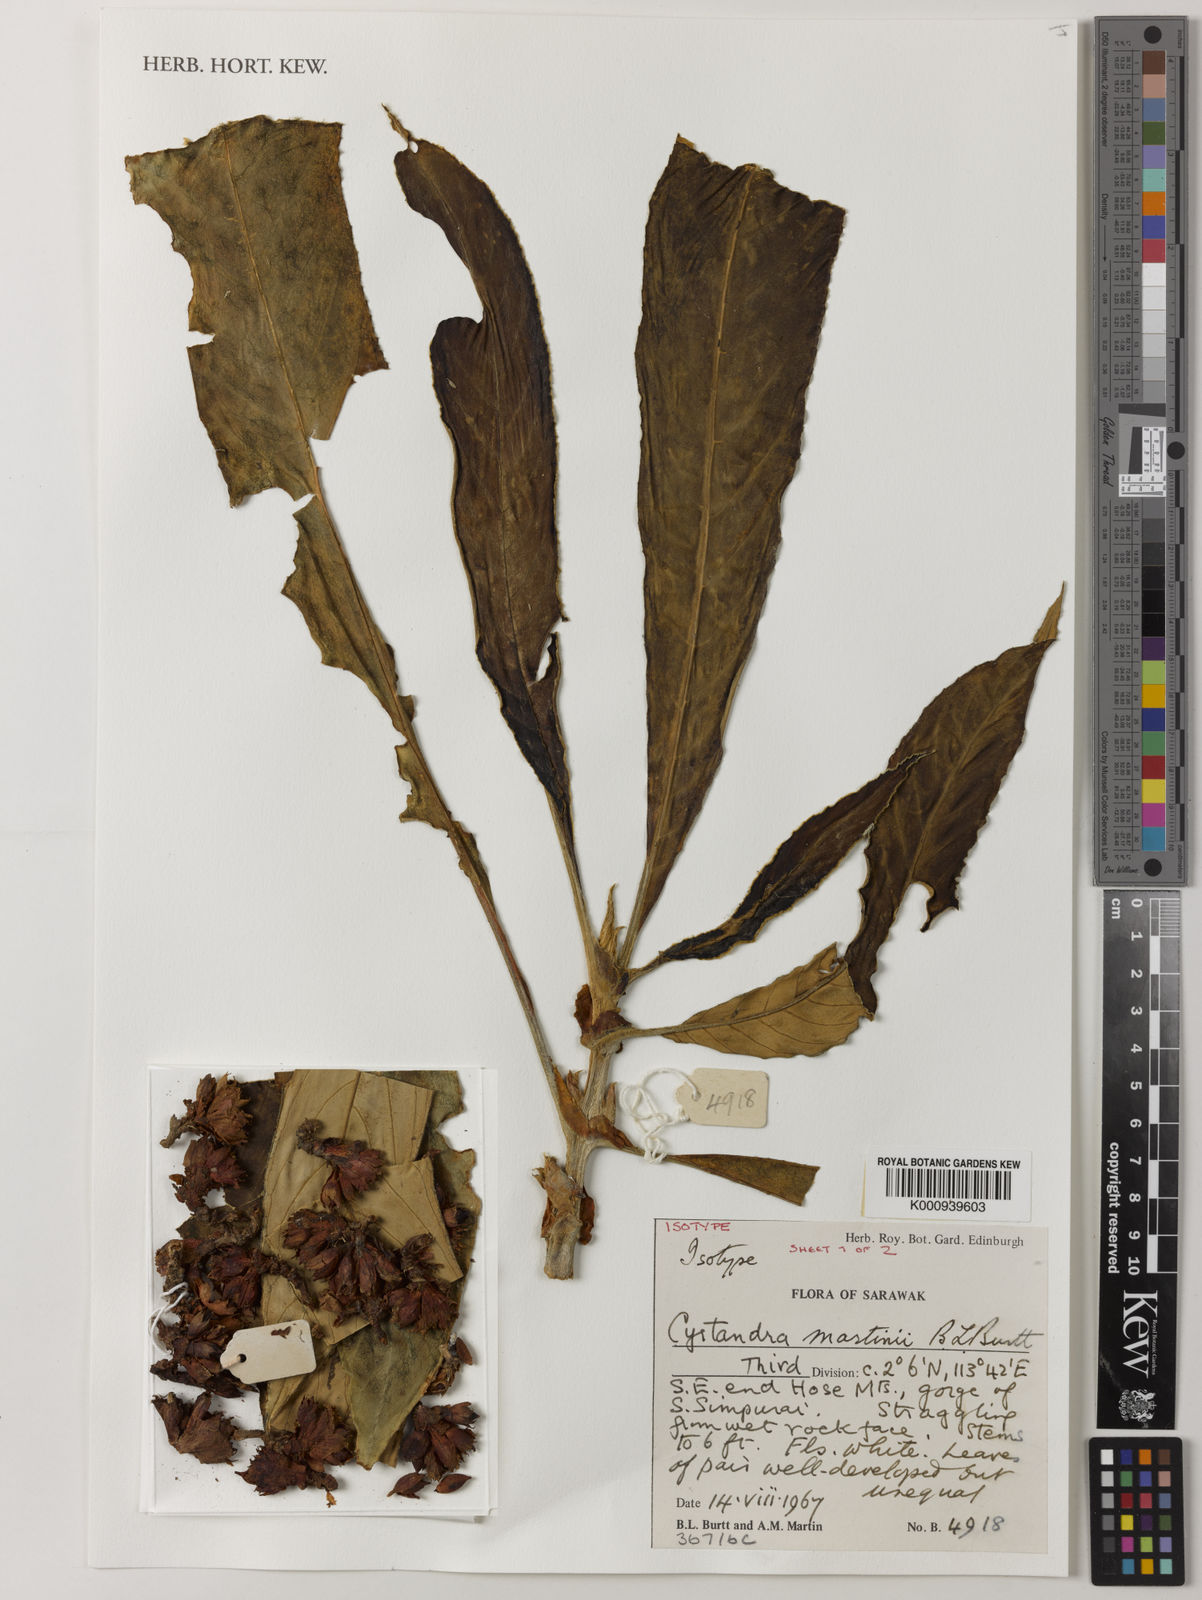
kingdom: Plantae
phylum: Tracheophyta
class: Magnoliopsida
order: Lamiales
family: Gesneriaceae
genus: Cyrtandra
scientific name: Cyrtandra martini
